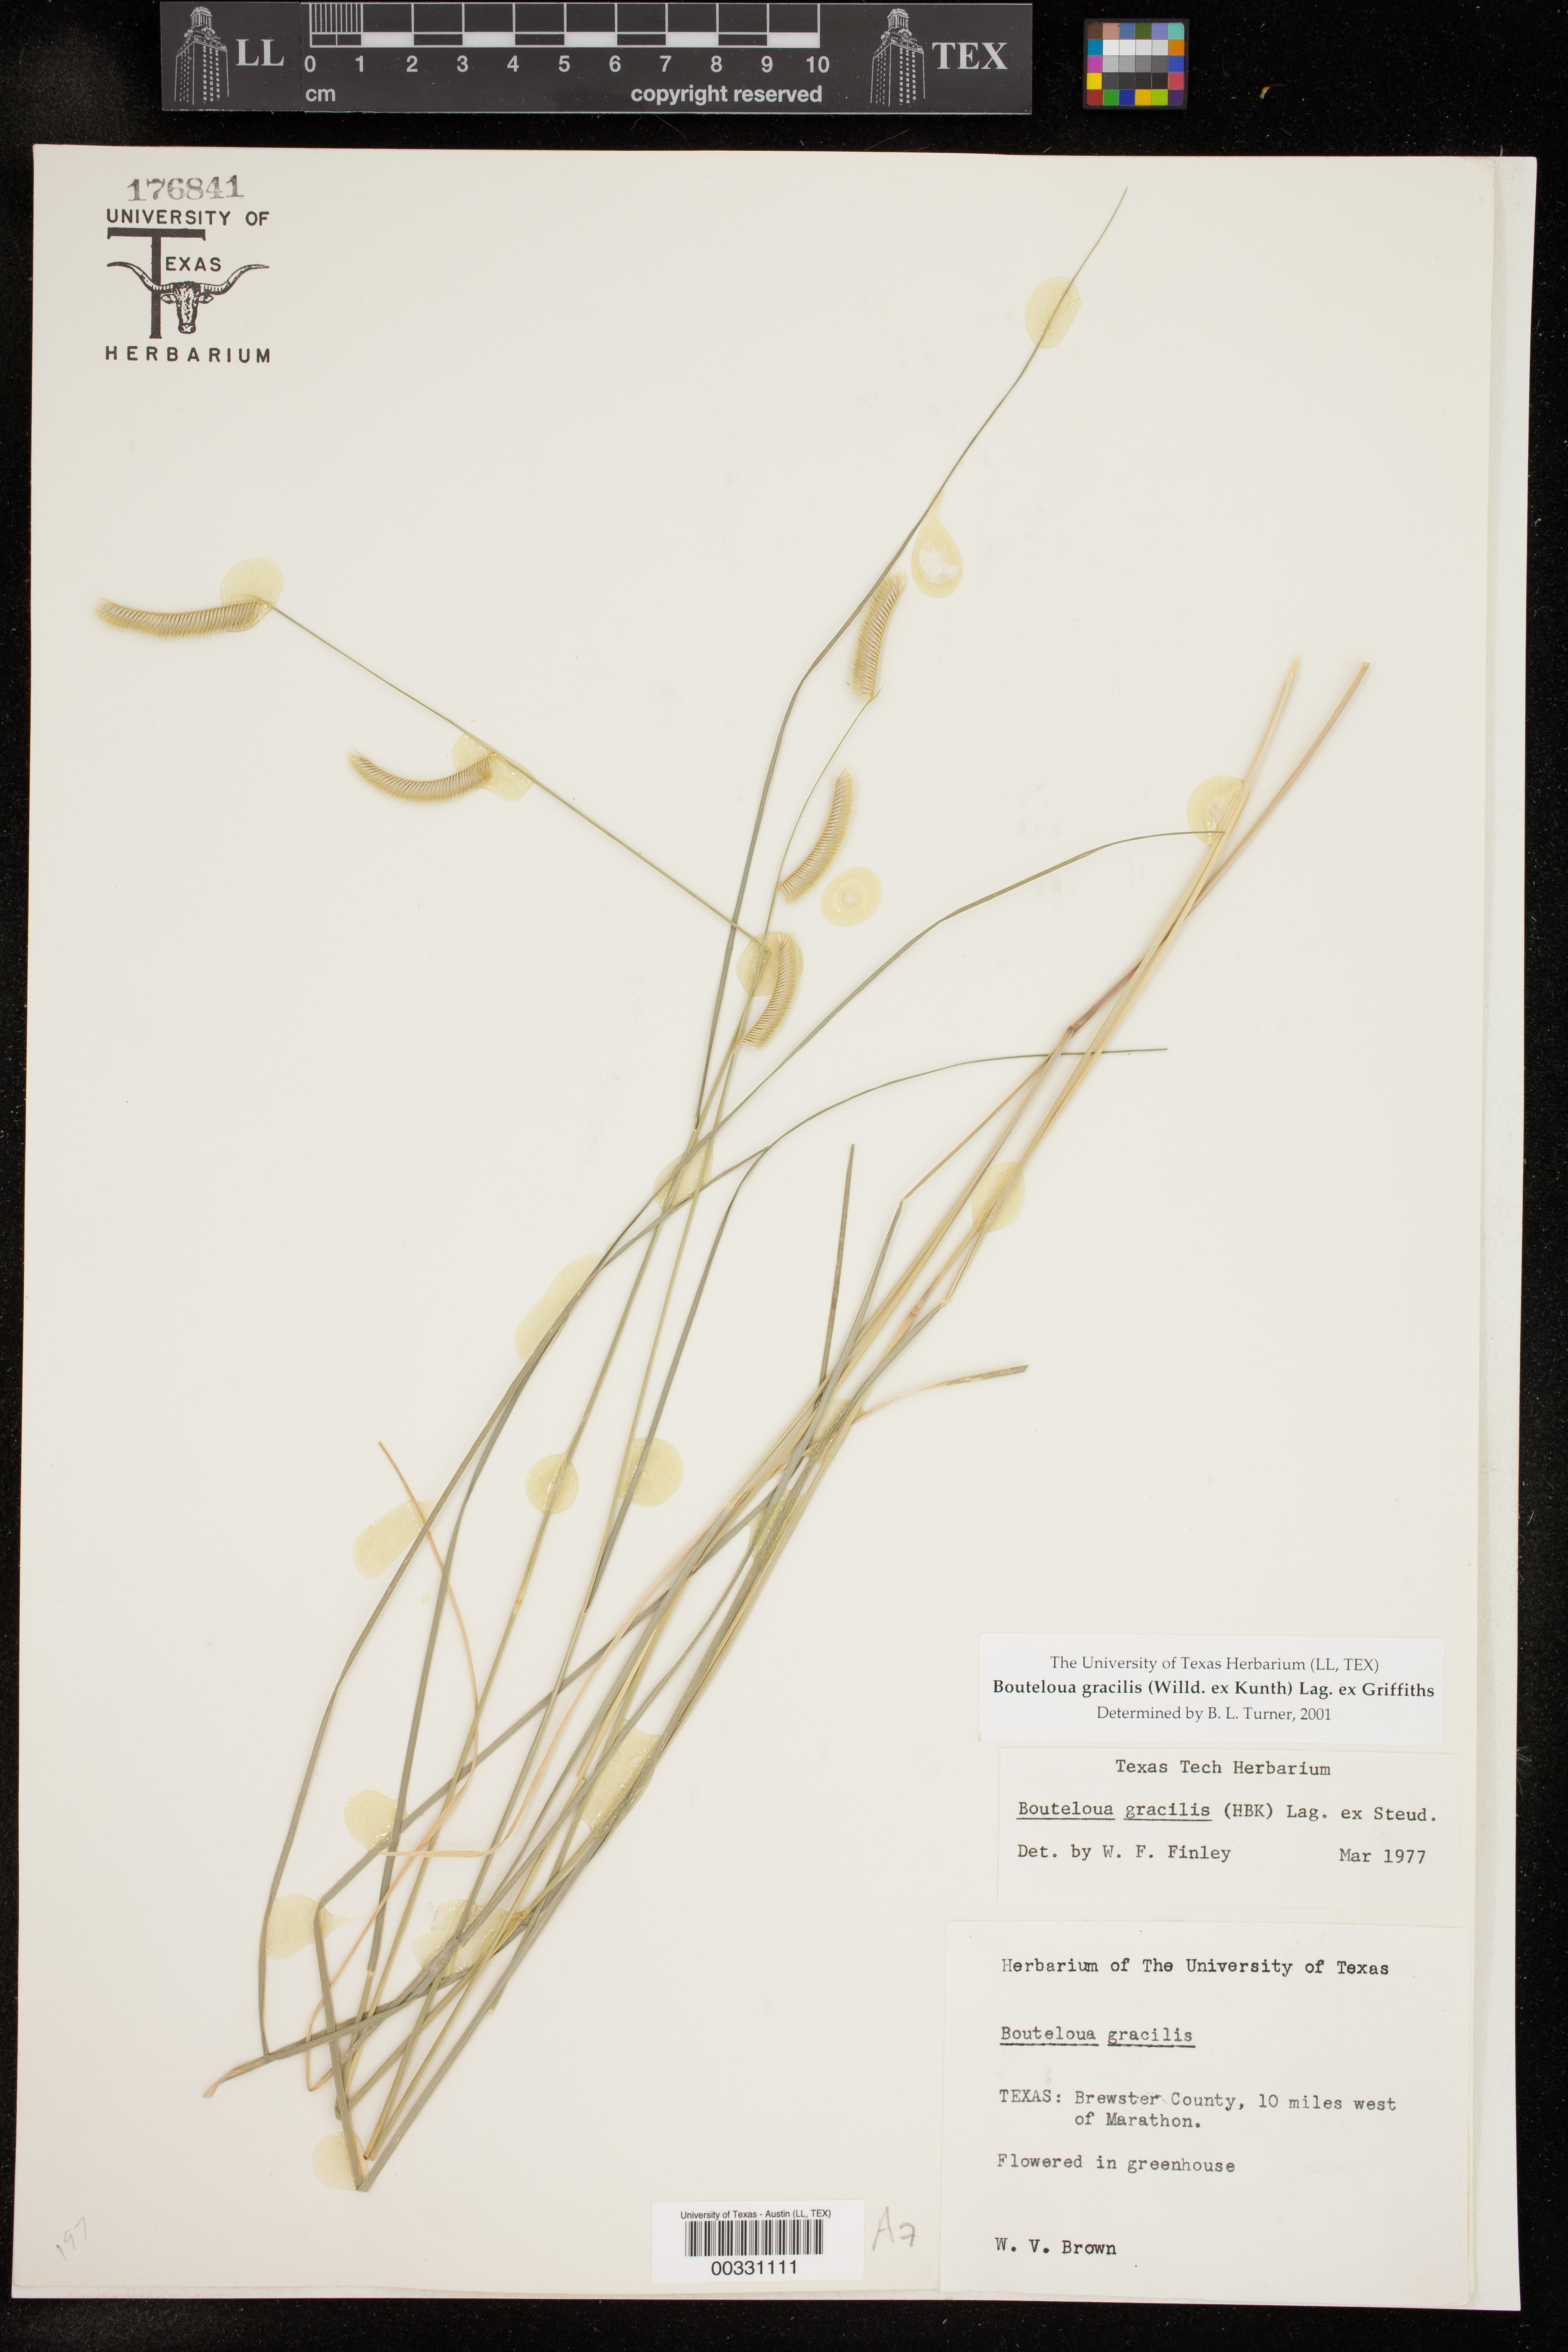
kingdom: Plantae
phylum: Tracheophyta
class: Liliopsida
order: Poales
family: Poaceae
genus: Bouteloua
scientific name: Bouteloua gracilis
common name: Blue grama
